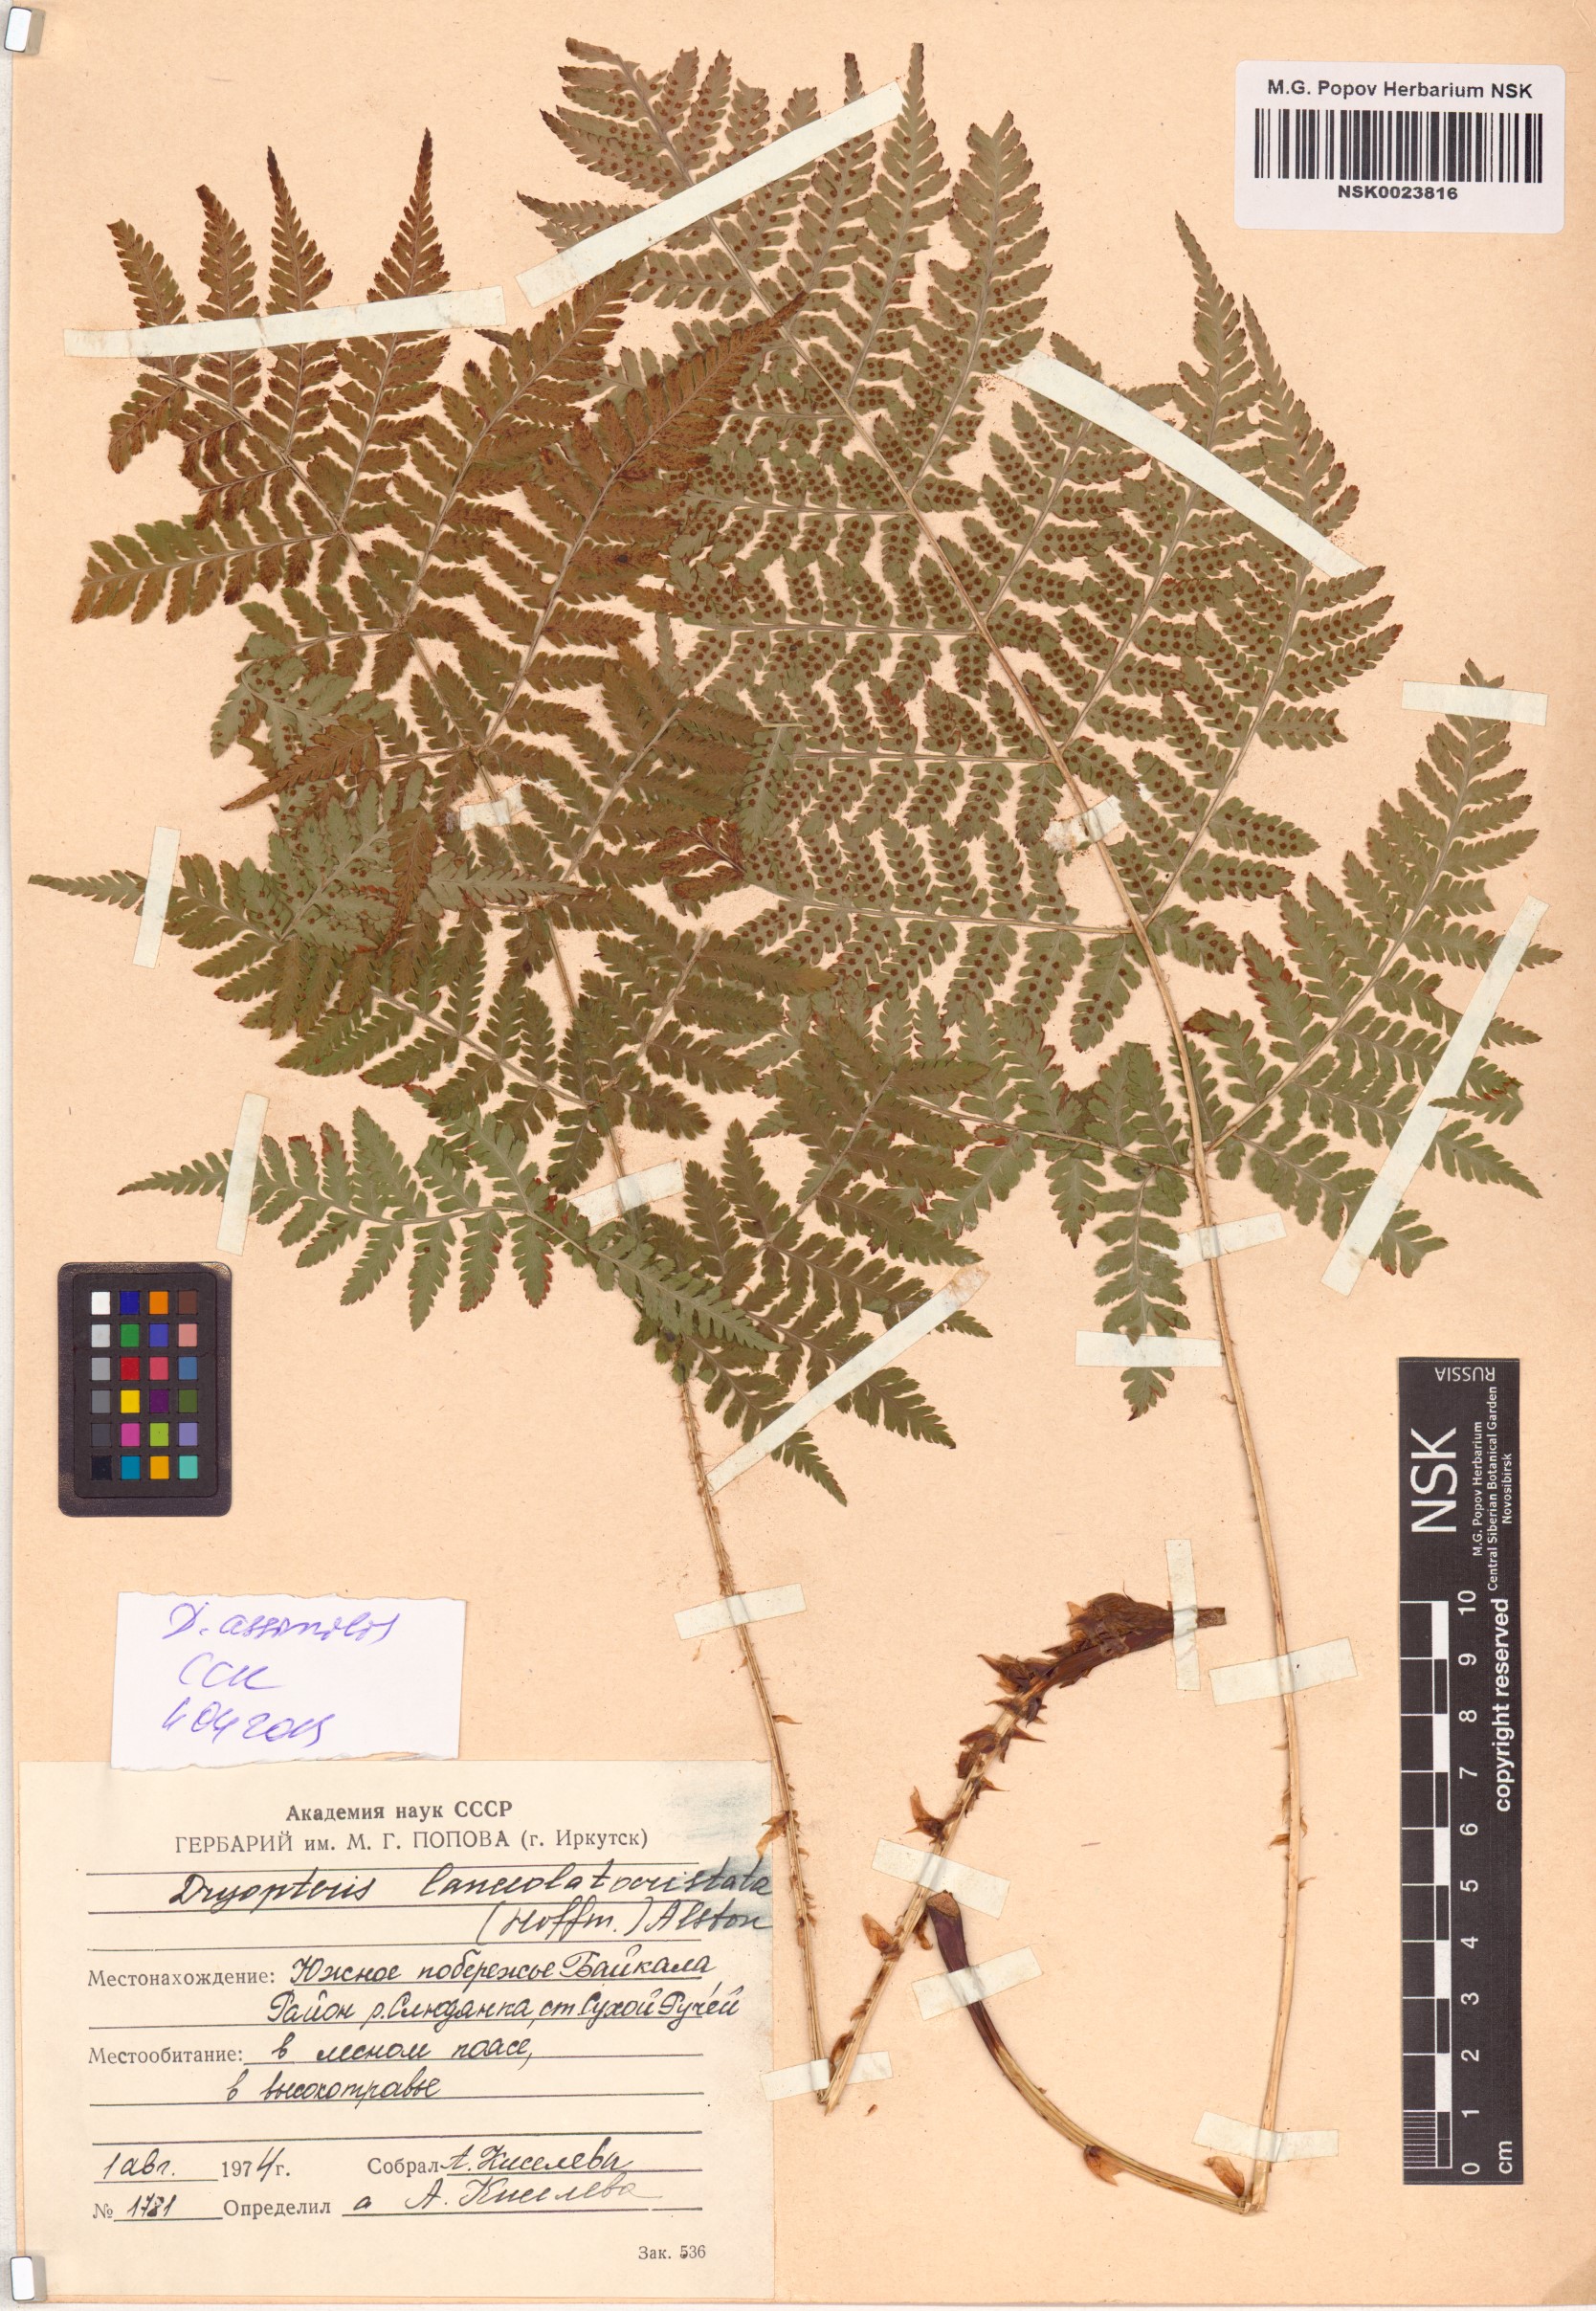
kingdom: Plantae
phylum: Tracheophyta
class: Polypodiopsida
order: Polypodiales
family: Dryopteridaceae
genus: Dryopteris
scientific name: Dryopteris expansa
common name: Northern buckler fern
